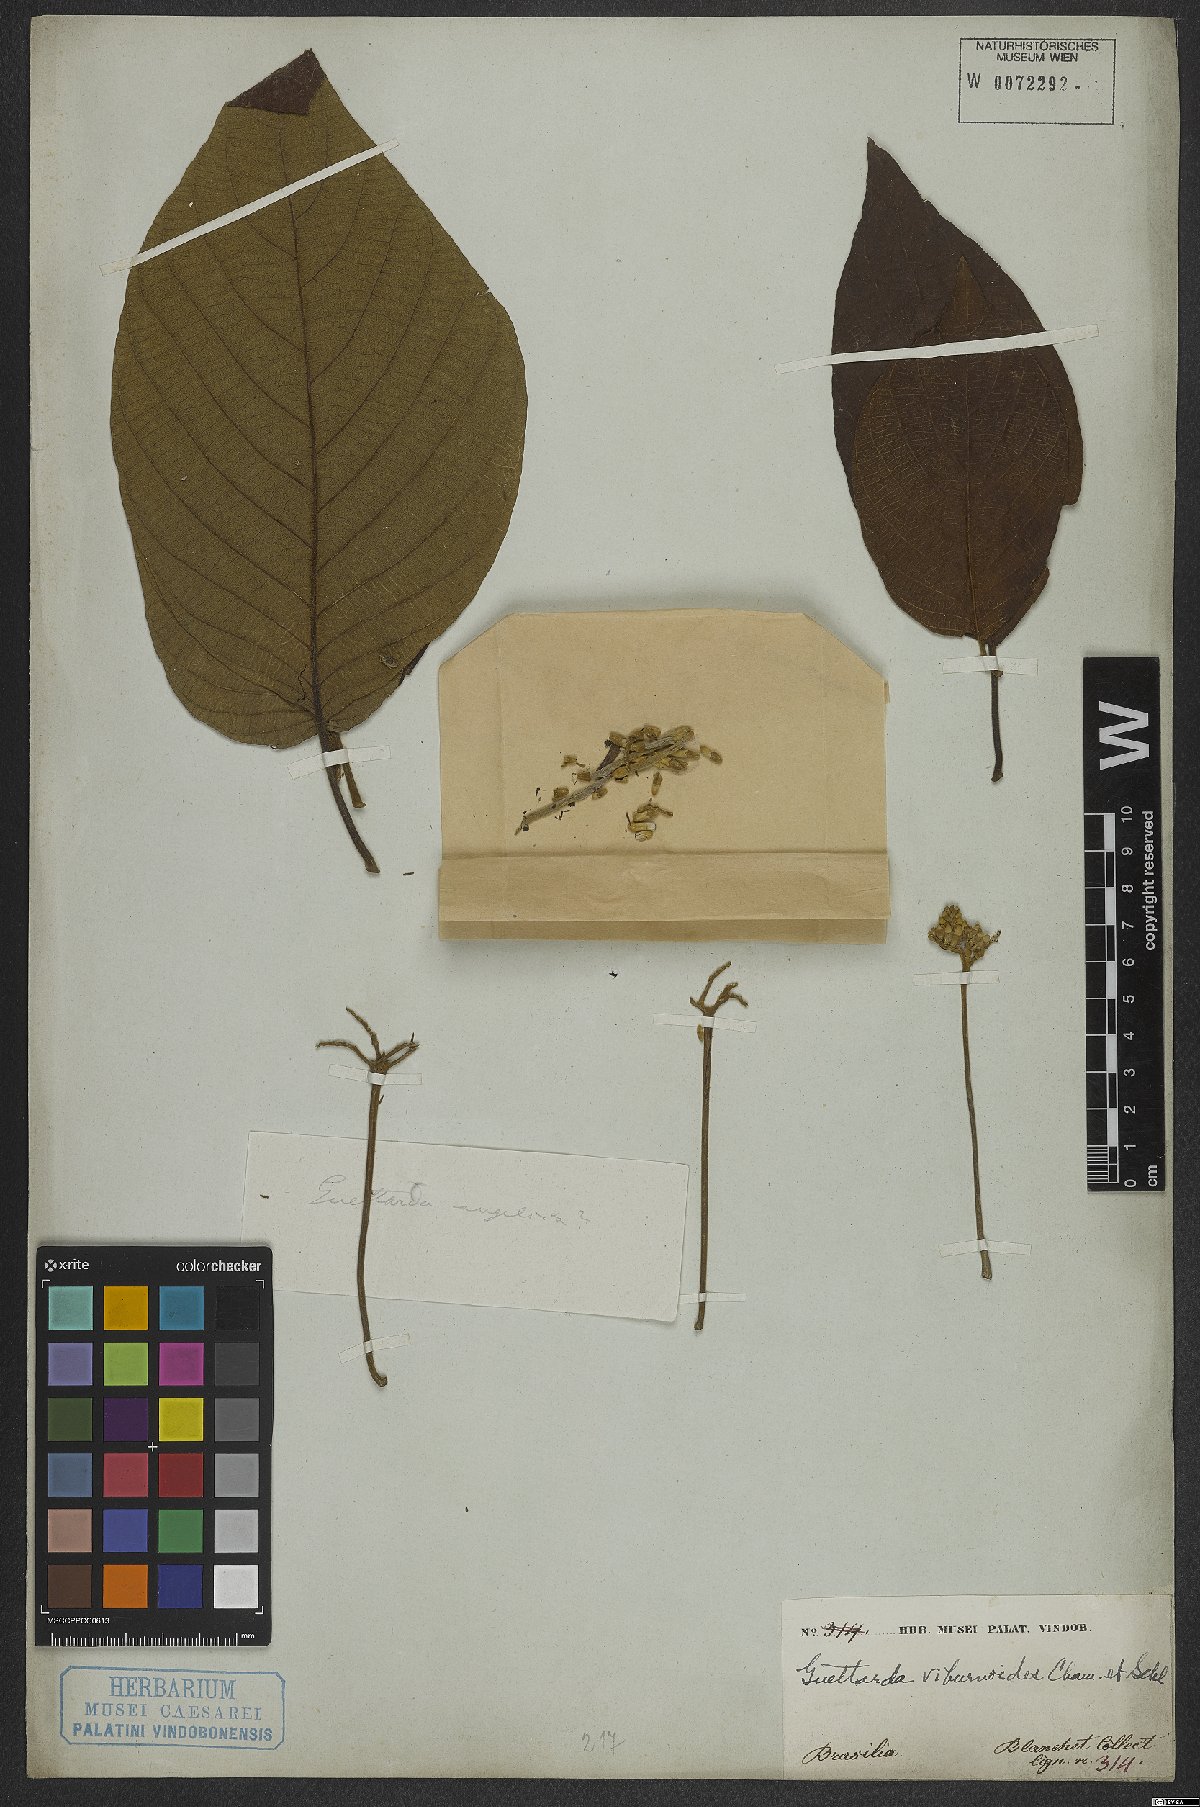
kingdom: Plantae
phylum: Tracheophyta
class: Magnoliopsida
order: Gentianales
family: Rubiaceae
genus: Guettarda
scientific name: Guettarda viburnoides
